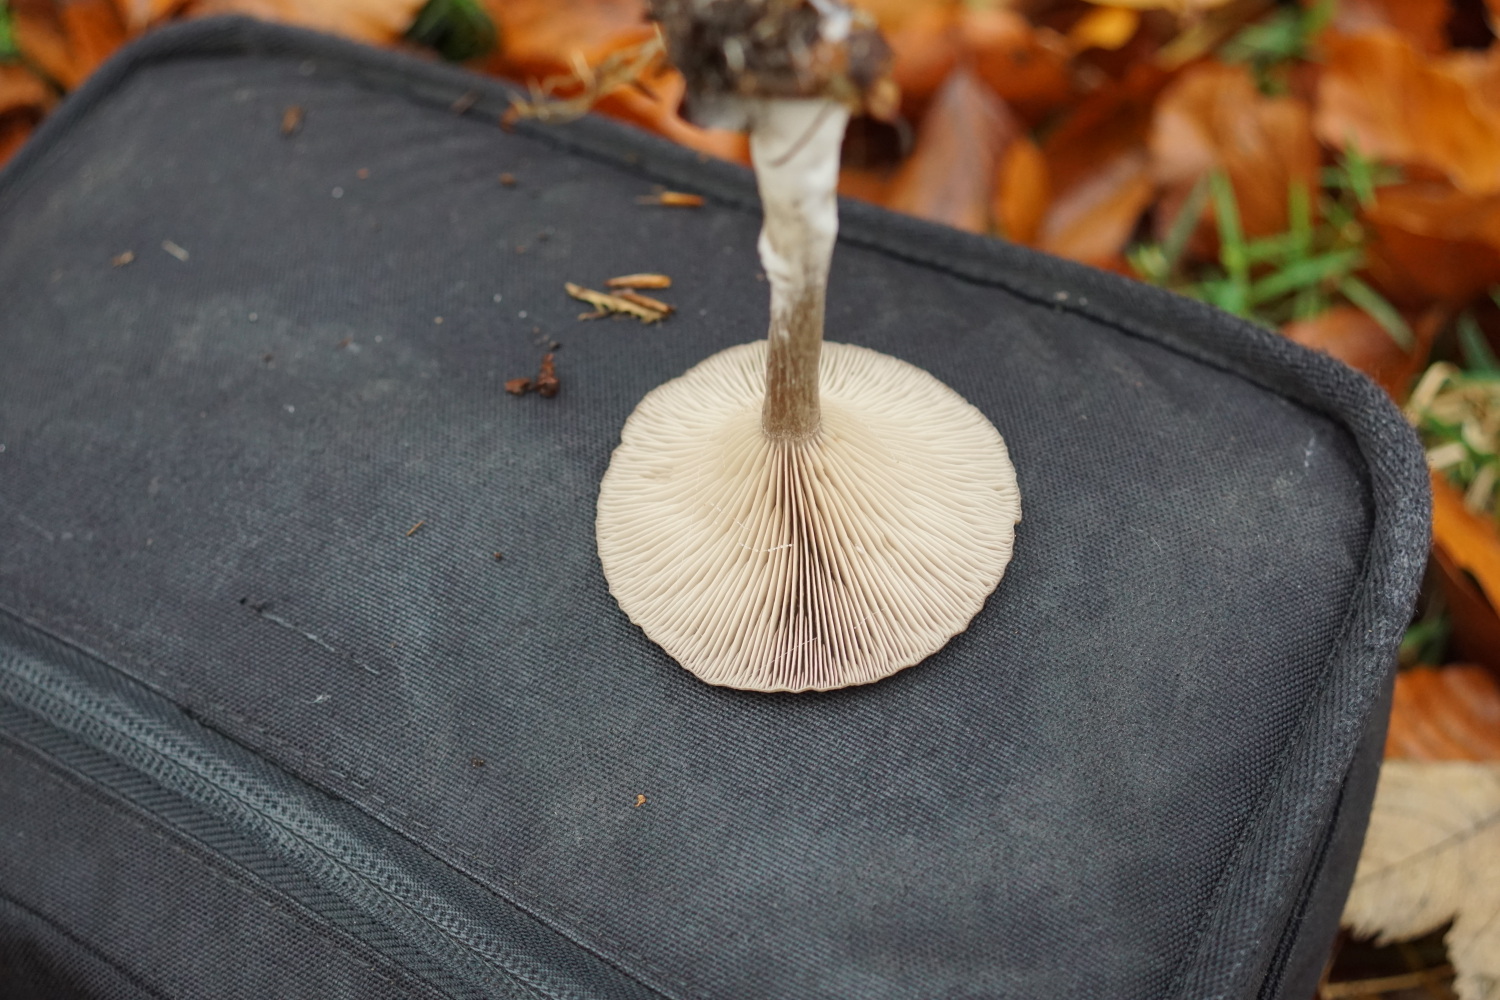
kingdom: Fungi
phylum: Basidiomycota
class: Agaricomycetes
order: Agaricales
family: Pseudoclitocybaceae
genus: Pseudoclitocybe
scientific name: Pseudoclitocybe cyathiformis
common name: almindelig bægertragthat
